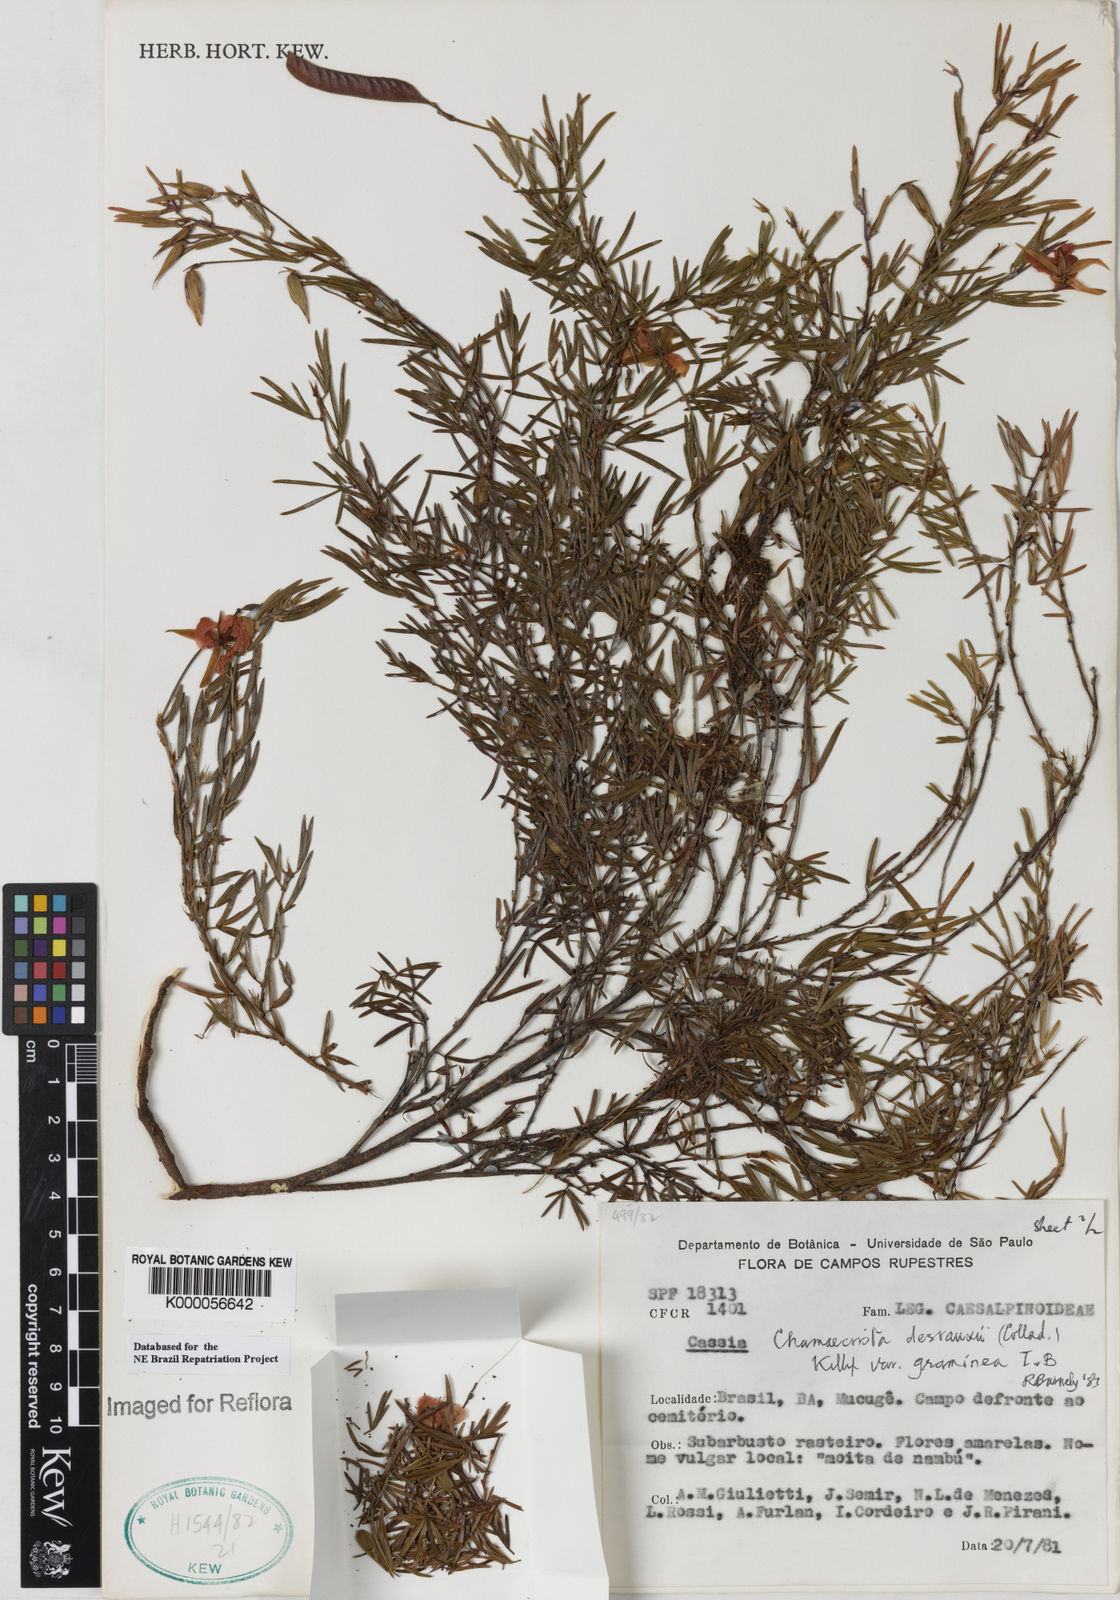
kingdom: Plantae
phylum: Tracheophyta
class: Magnoliopsida
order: Fabales
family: Fabaceae
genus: Chamaecrista
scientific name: Chamaecrista desvauxii
